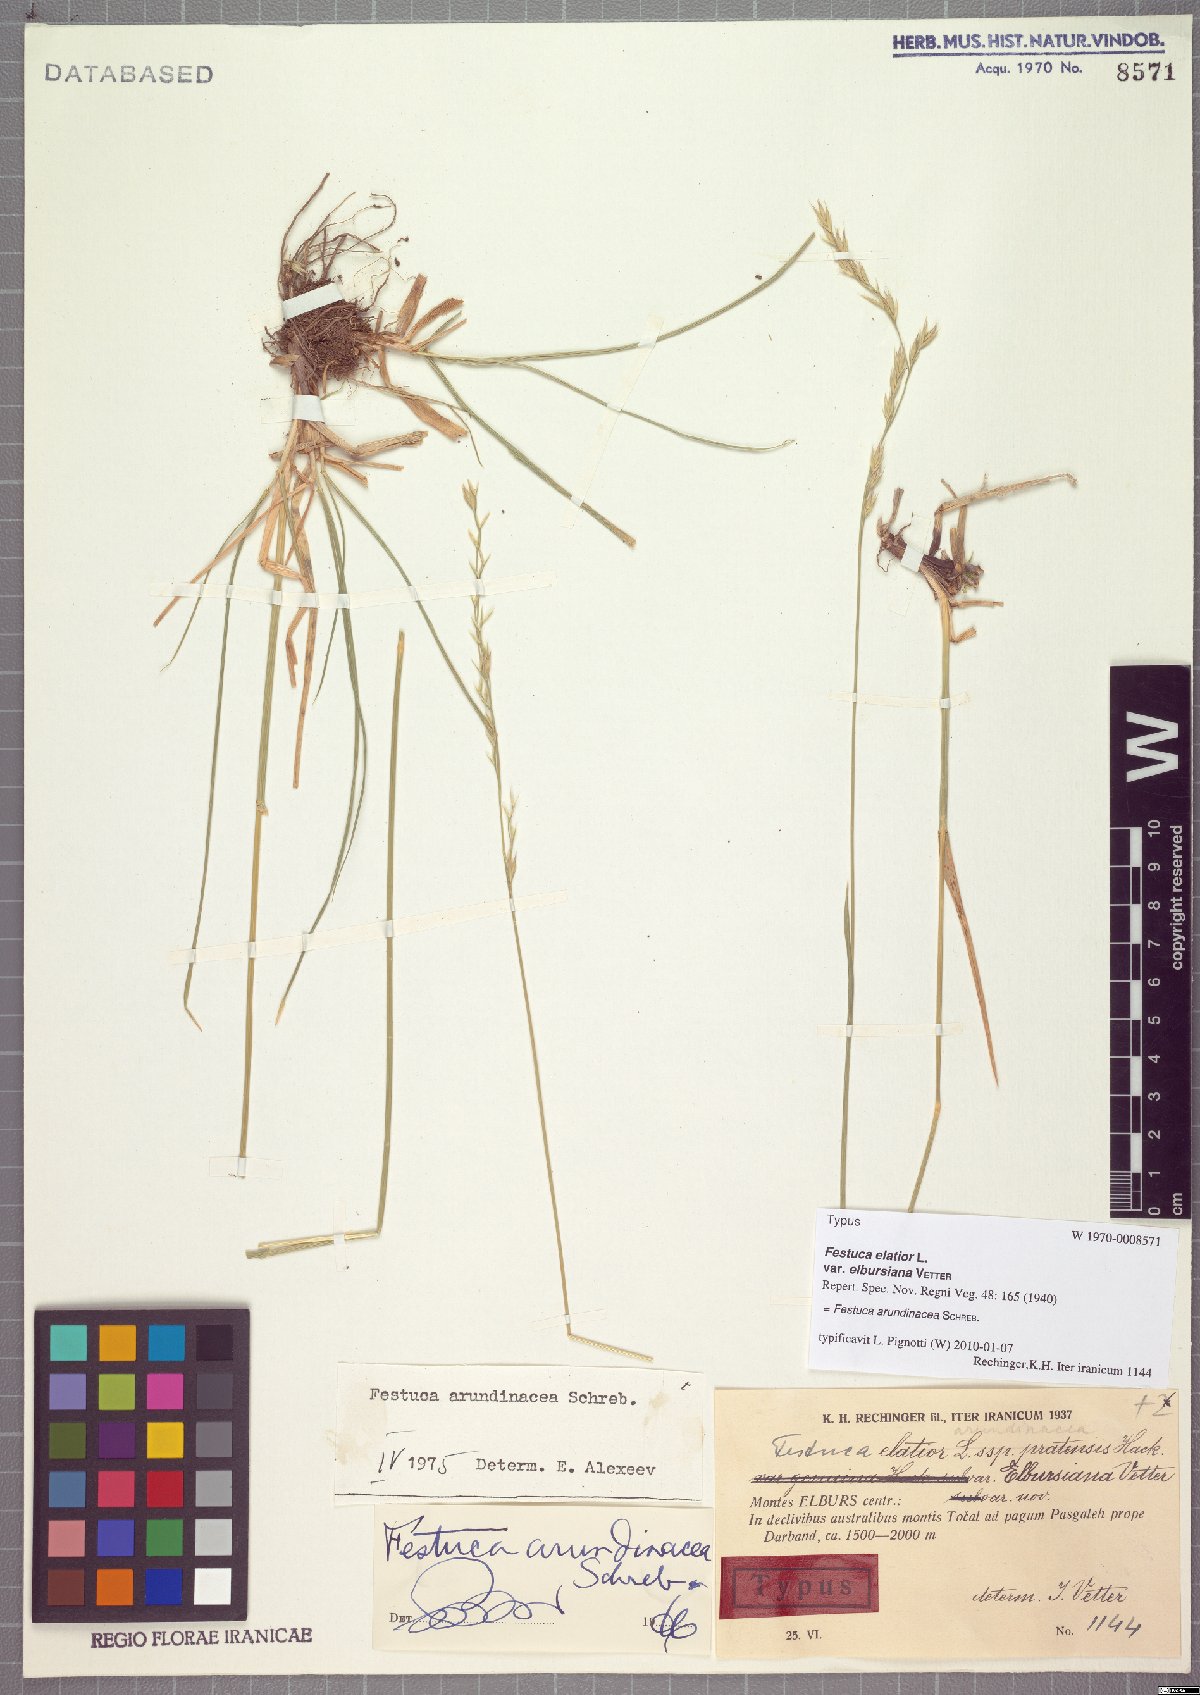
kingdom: Plantae
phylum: Tracheophyta
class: Liliopsida
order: Poales
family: Poaceae
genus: Lolium
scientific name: Lolium arundinaceum
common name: Reed fescue
